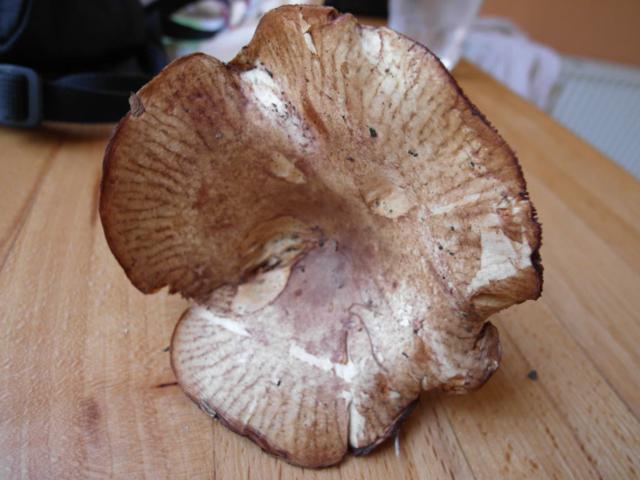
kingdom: Fungi
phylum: Basidiomycota
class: Agaricomycetes
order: Boletales
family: Paxillaceae
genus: Paxillus
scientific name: Paxillus rubicundulus
